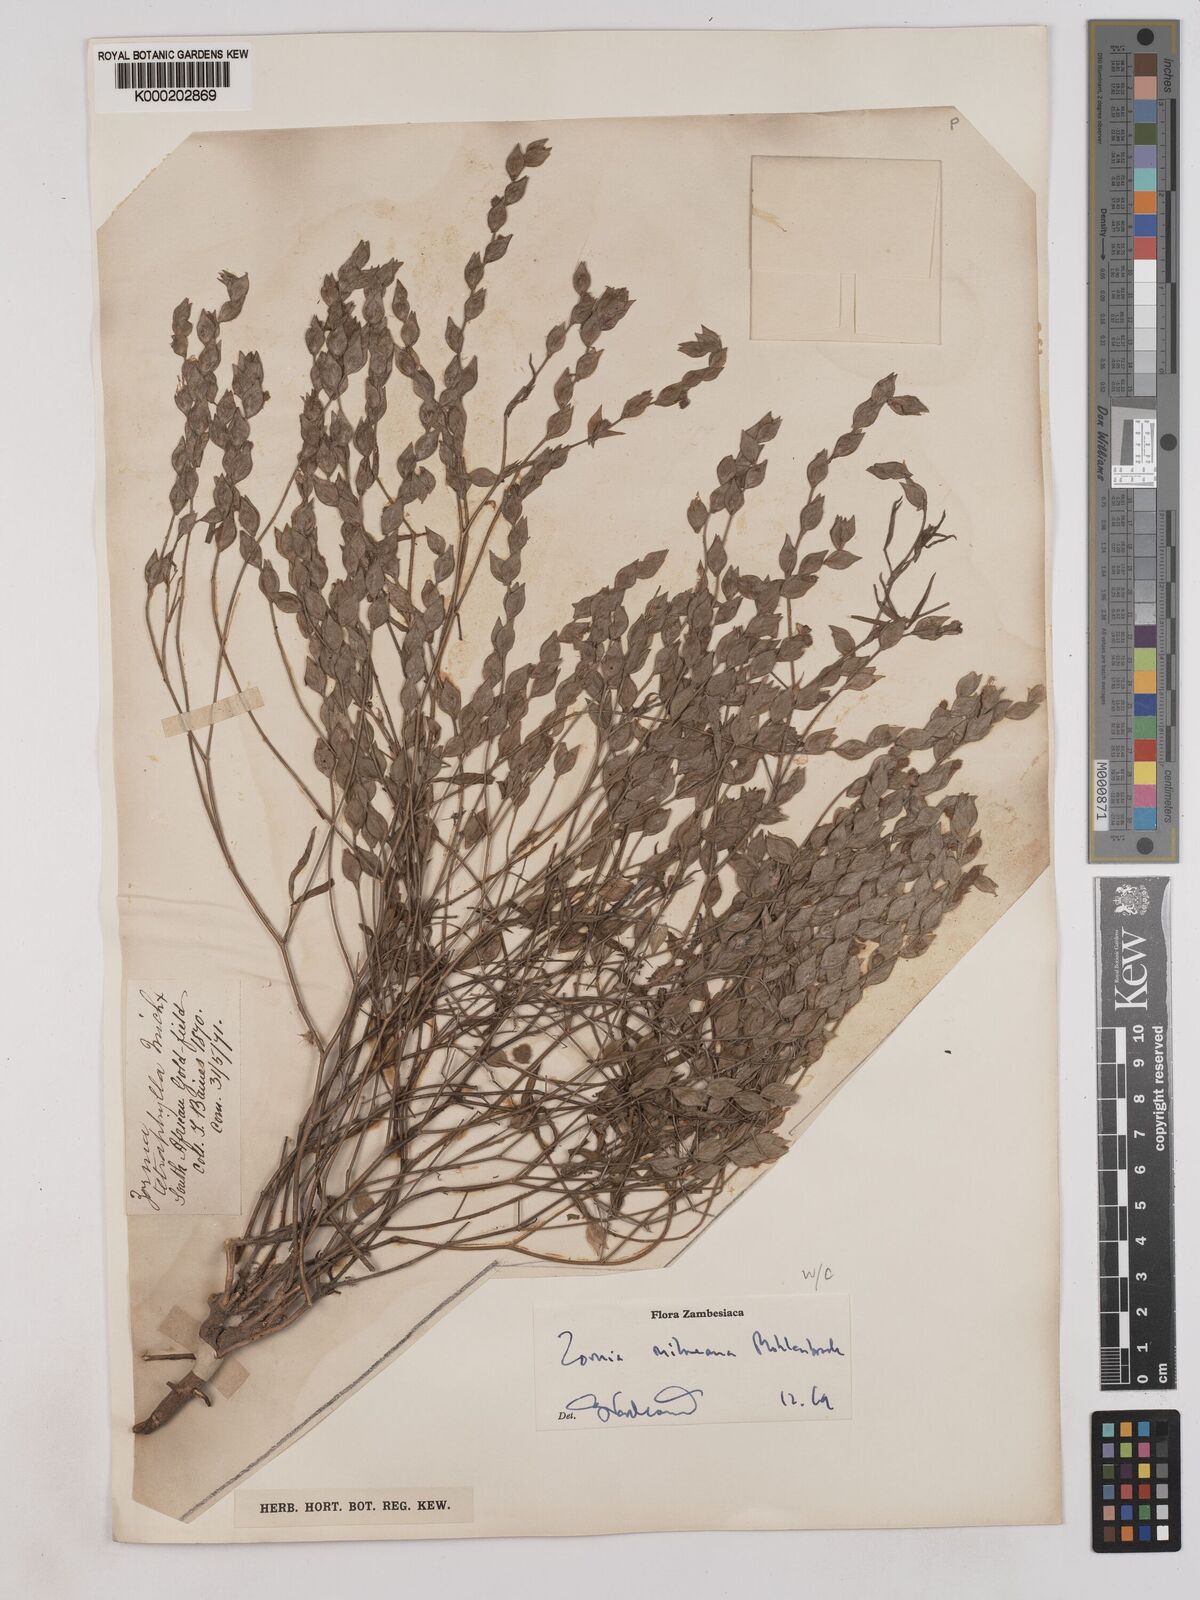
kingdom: Plantae
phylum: Tracheophyta
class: Magnoliopsida
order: Fabales
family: Fabaceae
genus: Zornia
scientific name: Zornia milneana
